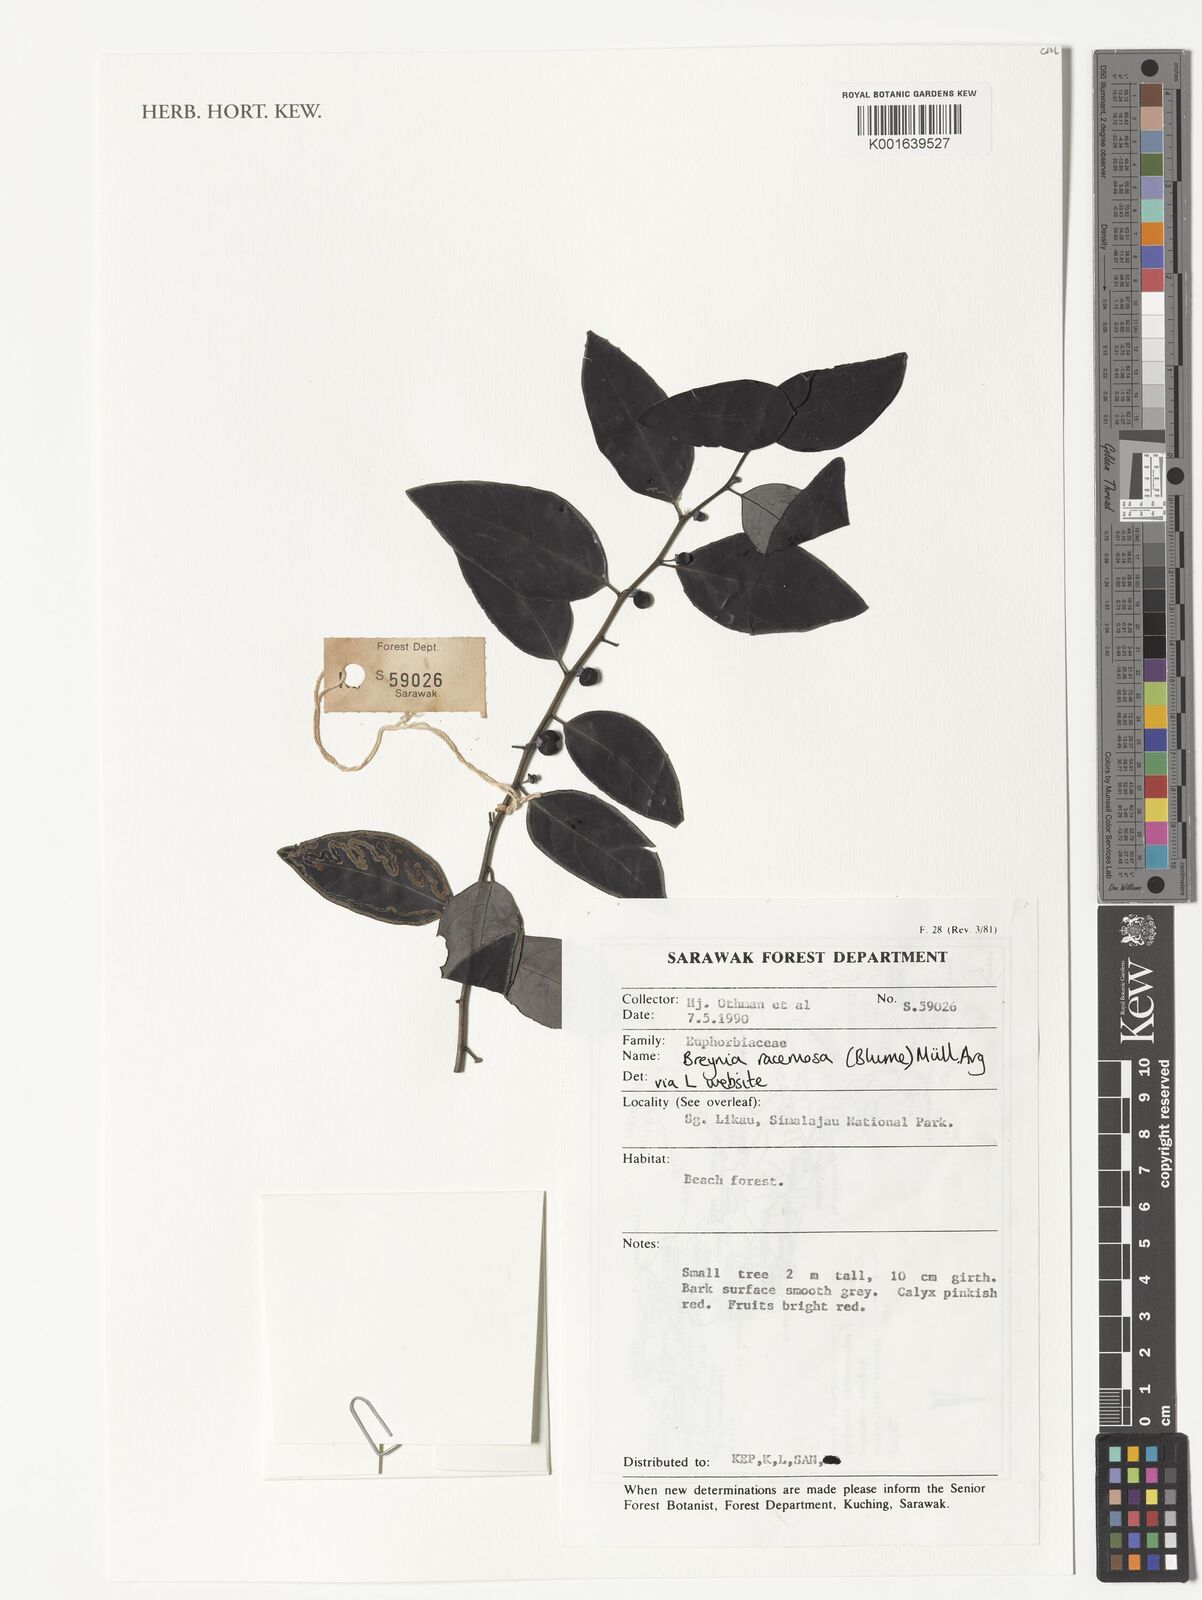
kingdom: Plantae
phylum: Tracheophyta
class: Magnoliopsida
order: Malpighiales
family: Phyllanthaceae
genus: Breynia
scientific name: Breynia racemosa
